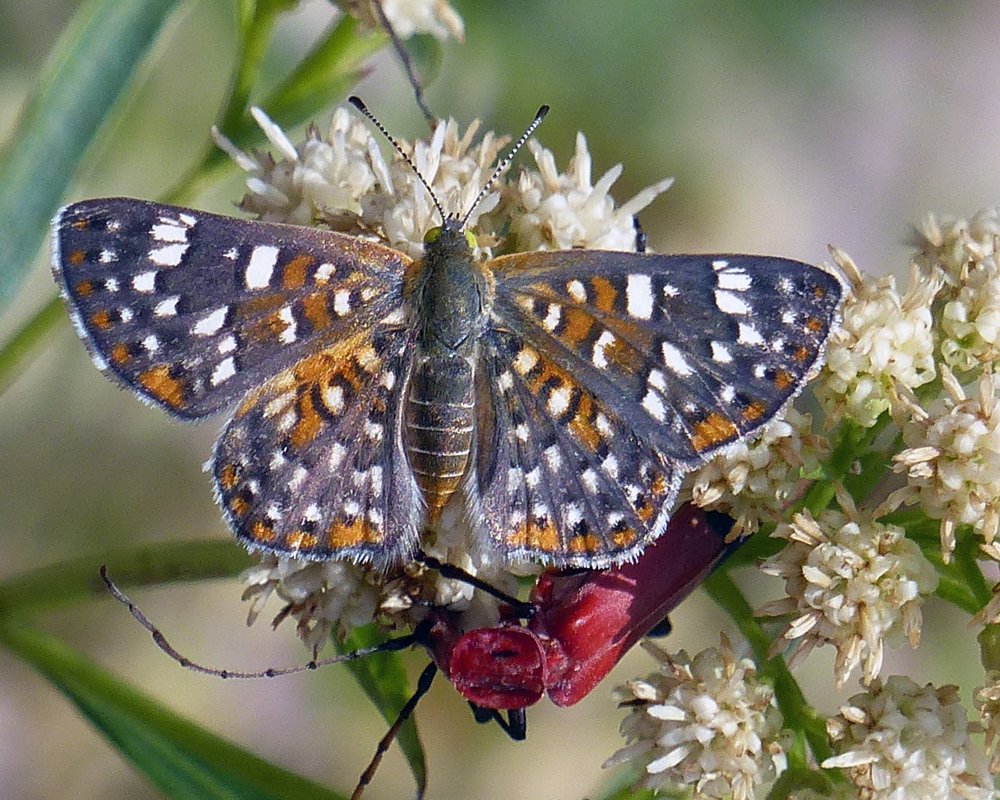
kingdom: Animalia
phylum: Arthropoda
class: Insecta
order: Lepidoptera
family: Riodinidae
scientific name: Riodinidae
